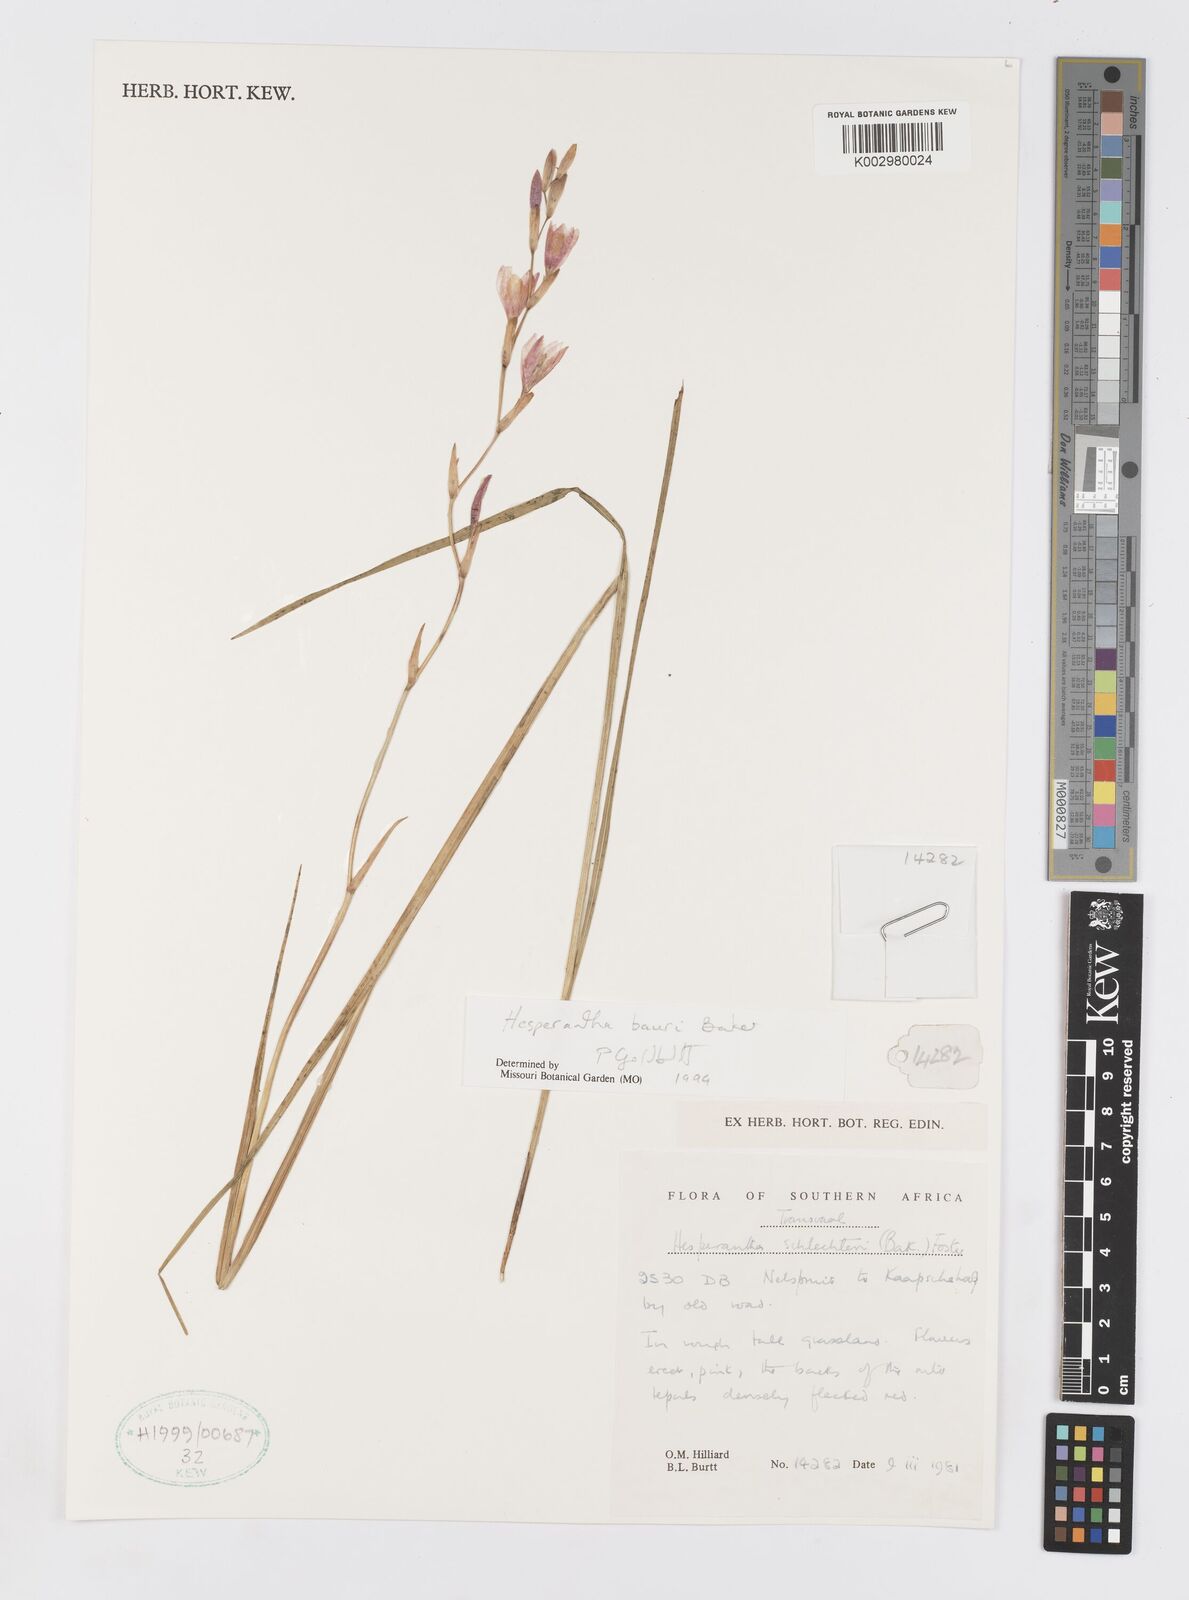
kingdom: Plantae
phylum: Tracheophyta
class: Liliopsida
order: Asparagales
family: Iridaceae
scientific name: Iridaceae
